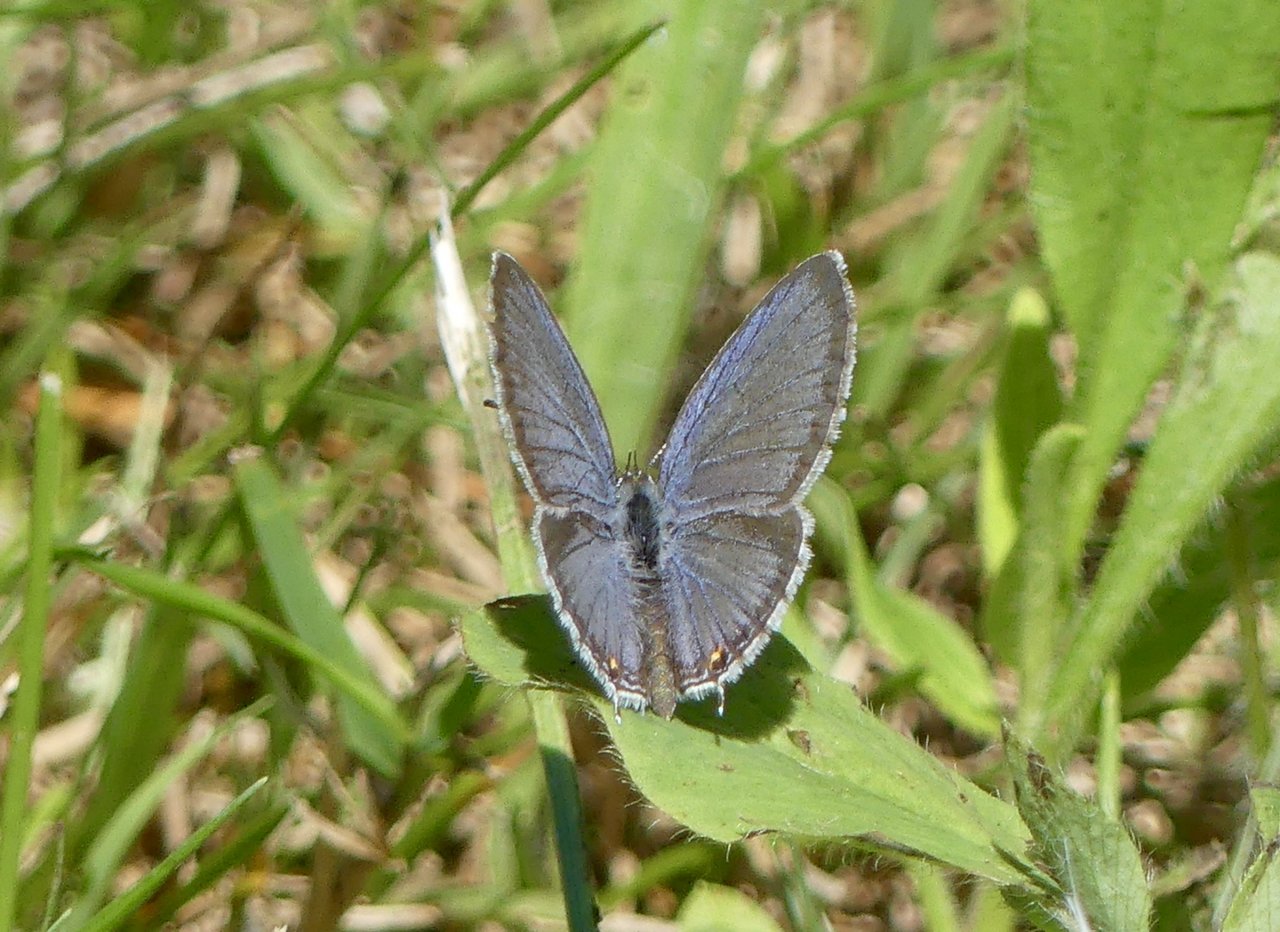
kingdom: Animalia
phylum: Arthropoda
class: Insecta
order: Lepidoptera
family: Lycaenidae
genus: Elkalyce
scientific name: Elkalyce comyntas
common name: Eastern Tailed-Blue
